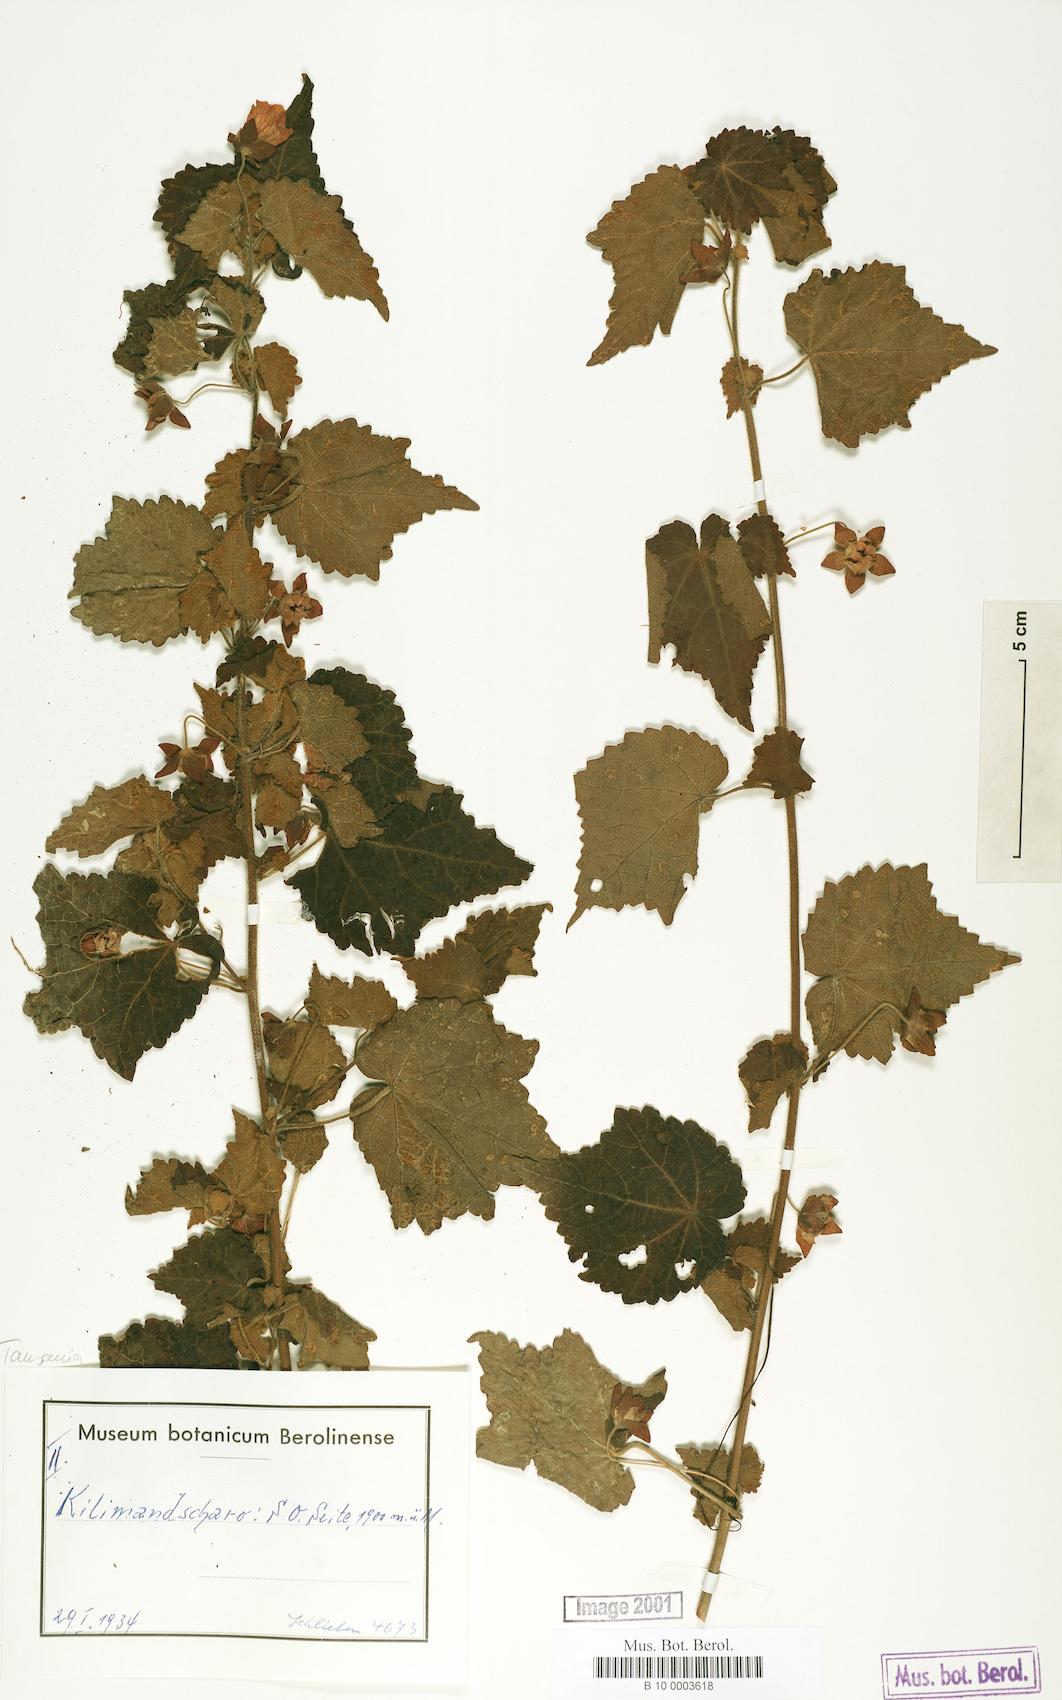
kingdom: Plantae
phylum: Tracheophyta
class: Magnoliopsida
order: Malvales
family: Malvaceae
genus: Pavonia
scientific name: Pavonia burchellii
